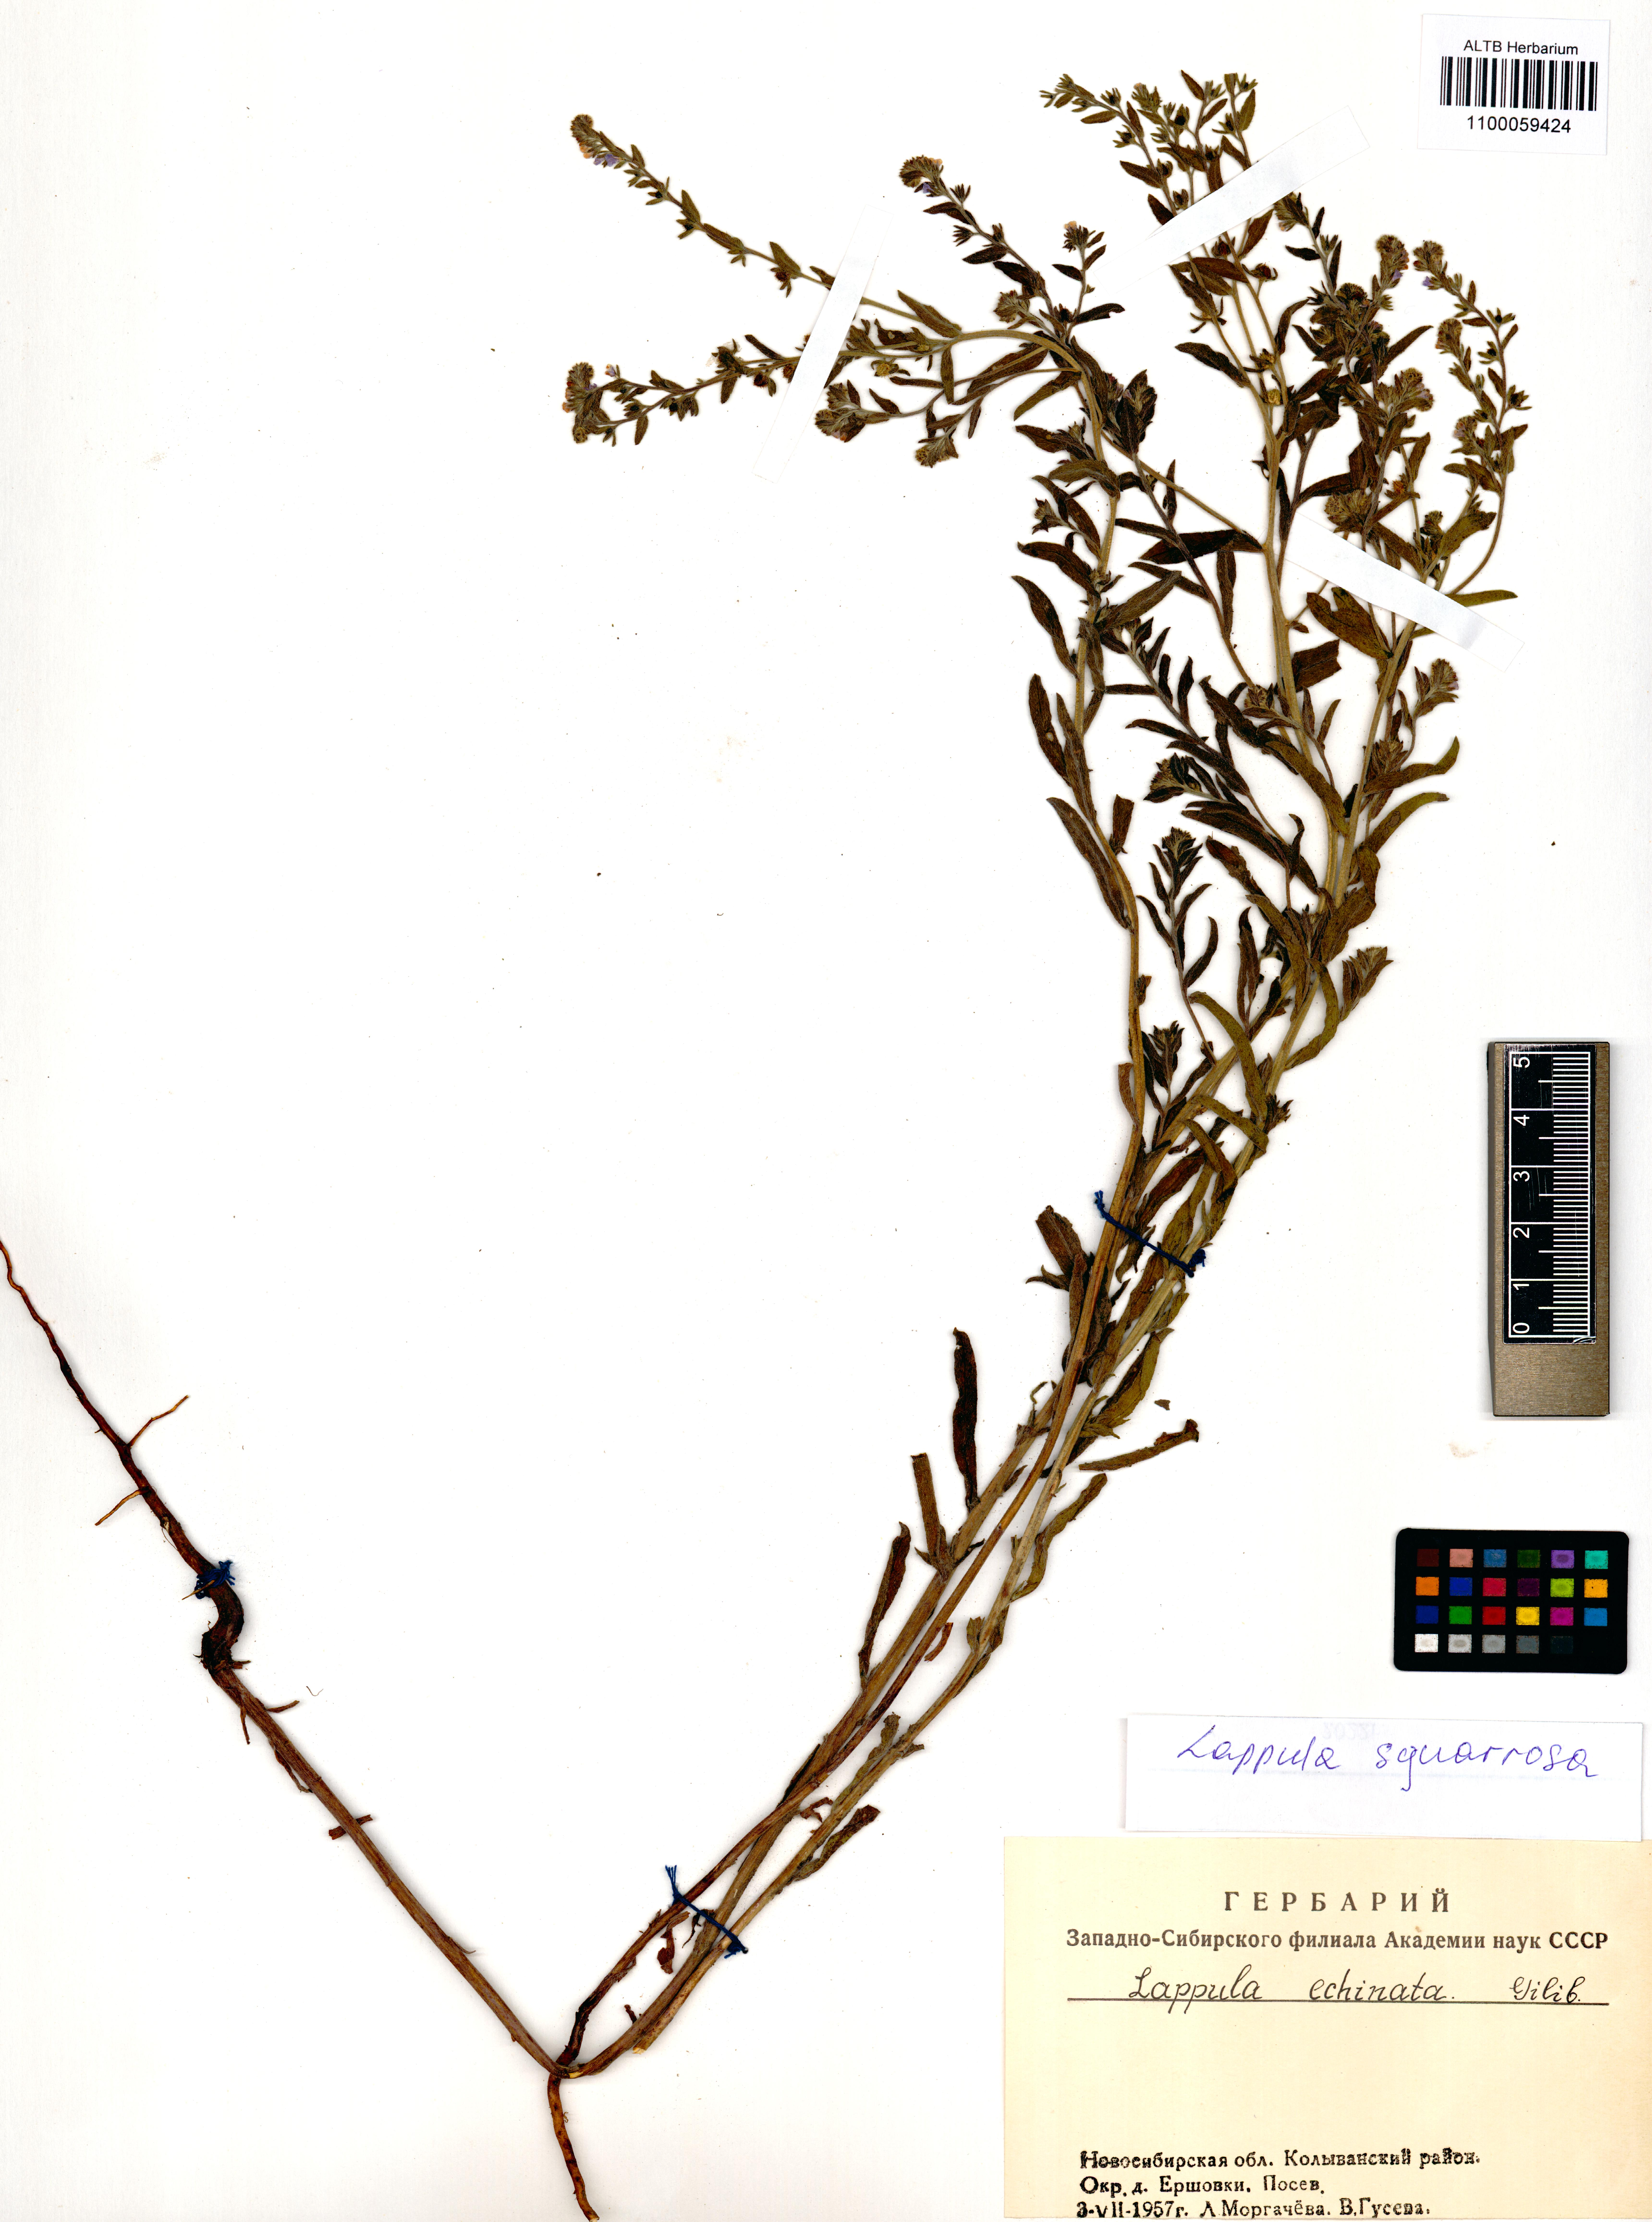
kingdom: Plantae
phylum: Tracheophyta
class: Magnoliopsida
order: Boraginales
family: Boraginaceae
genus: Lappula
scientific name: Lappula squarrosa
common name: European stickseed
